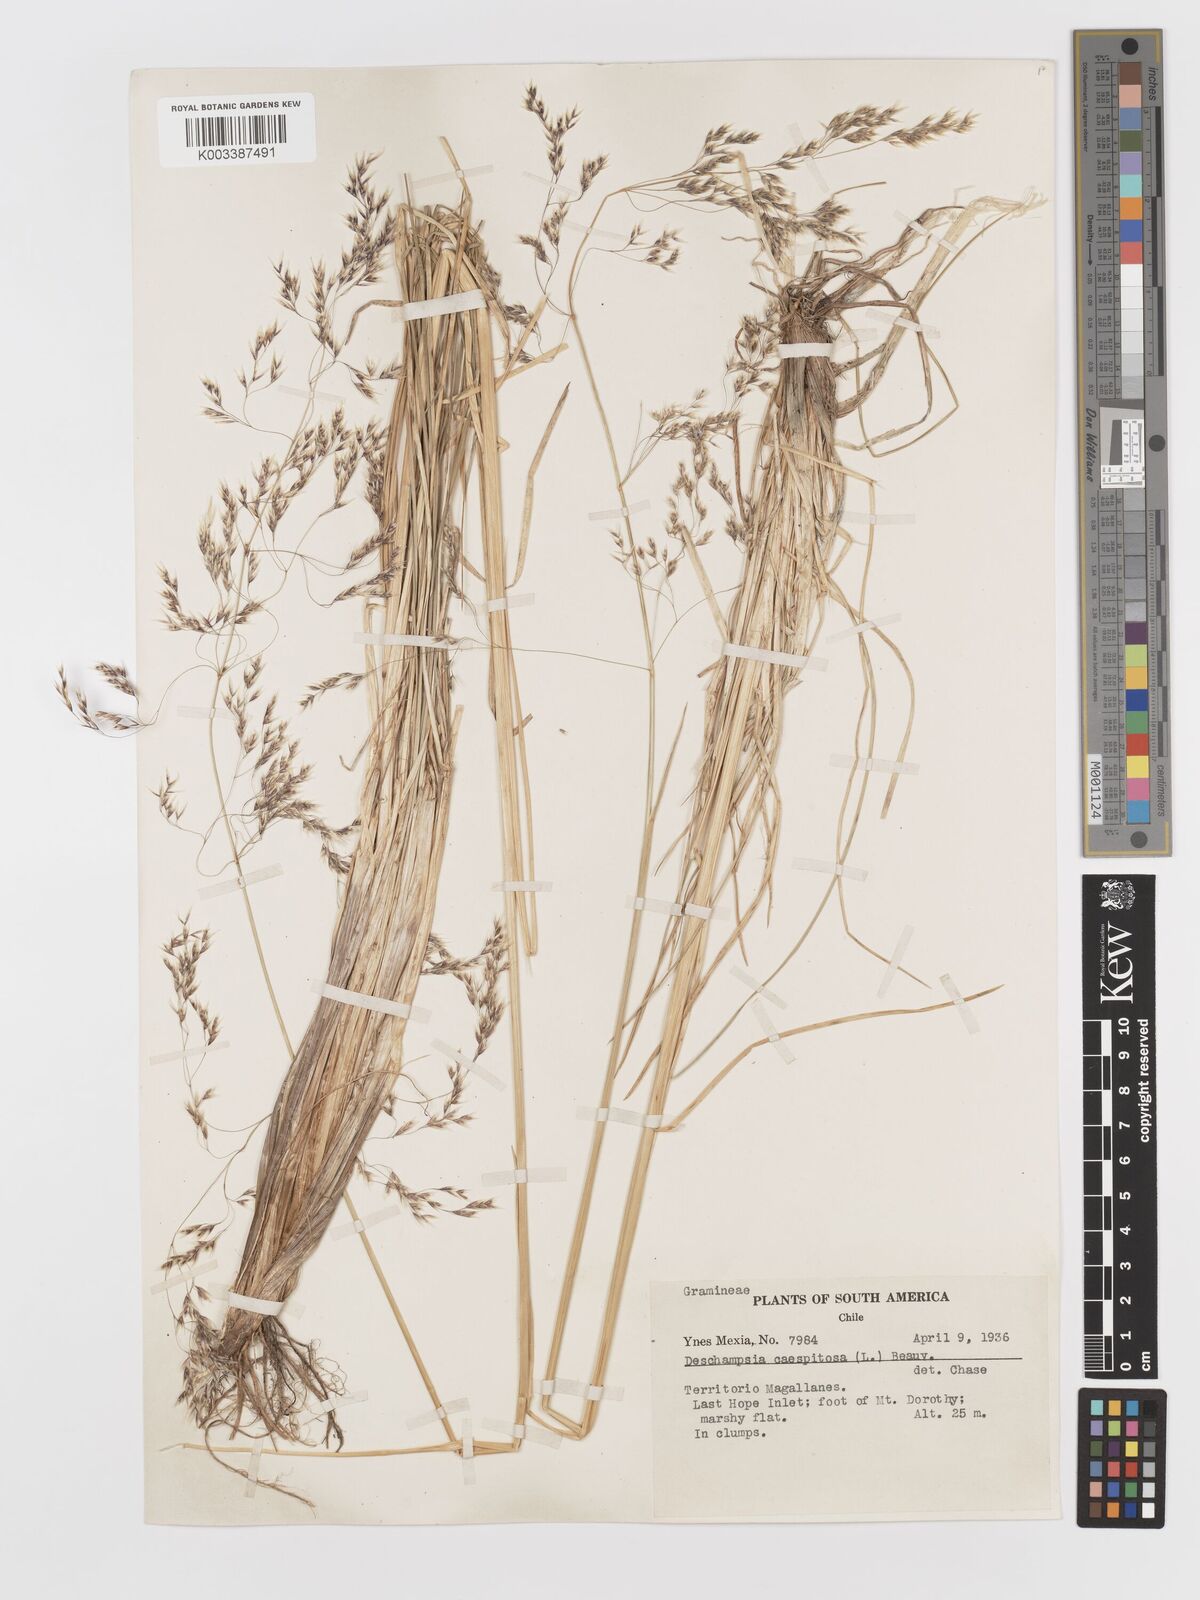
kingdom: Plantae
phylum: Tracheophyta
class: Liliopsida
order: Poales
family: Poaceae
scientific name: Poaceae
